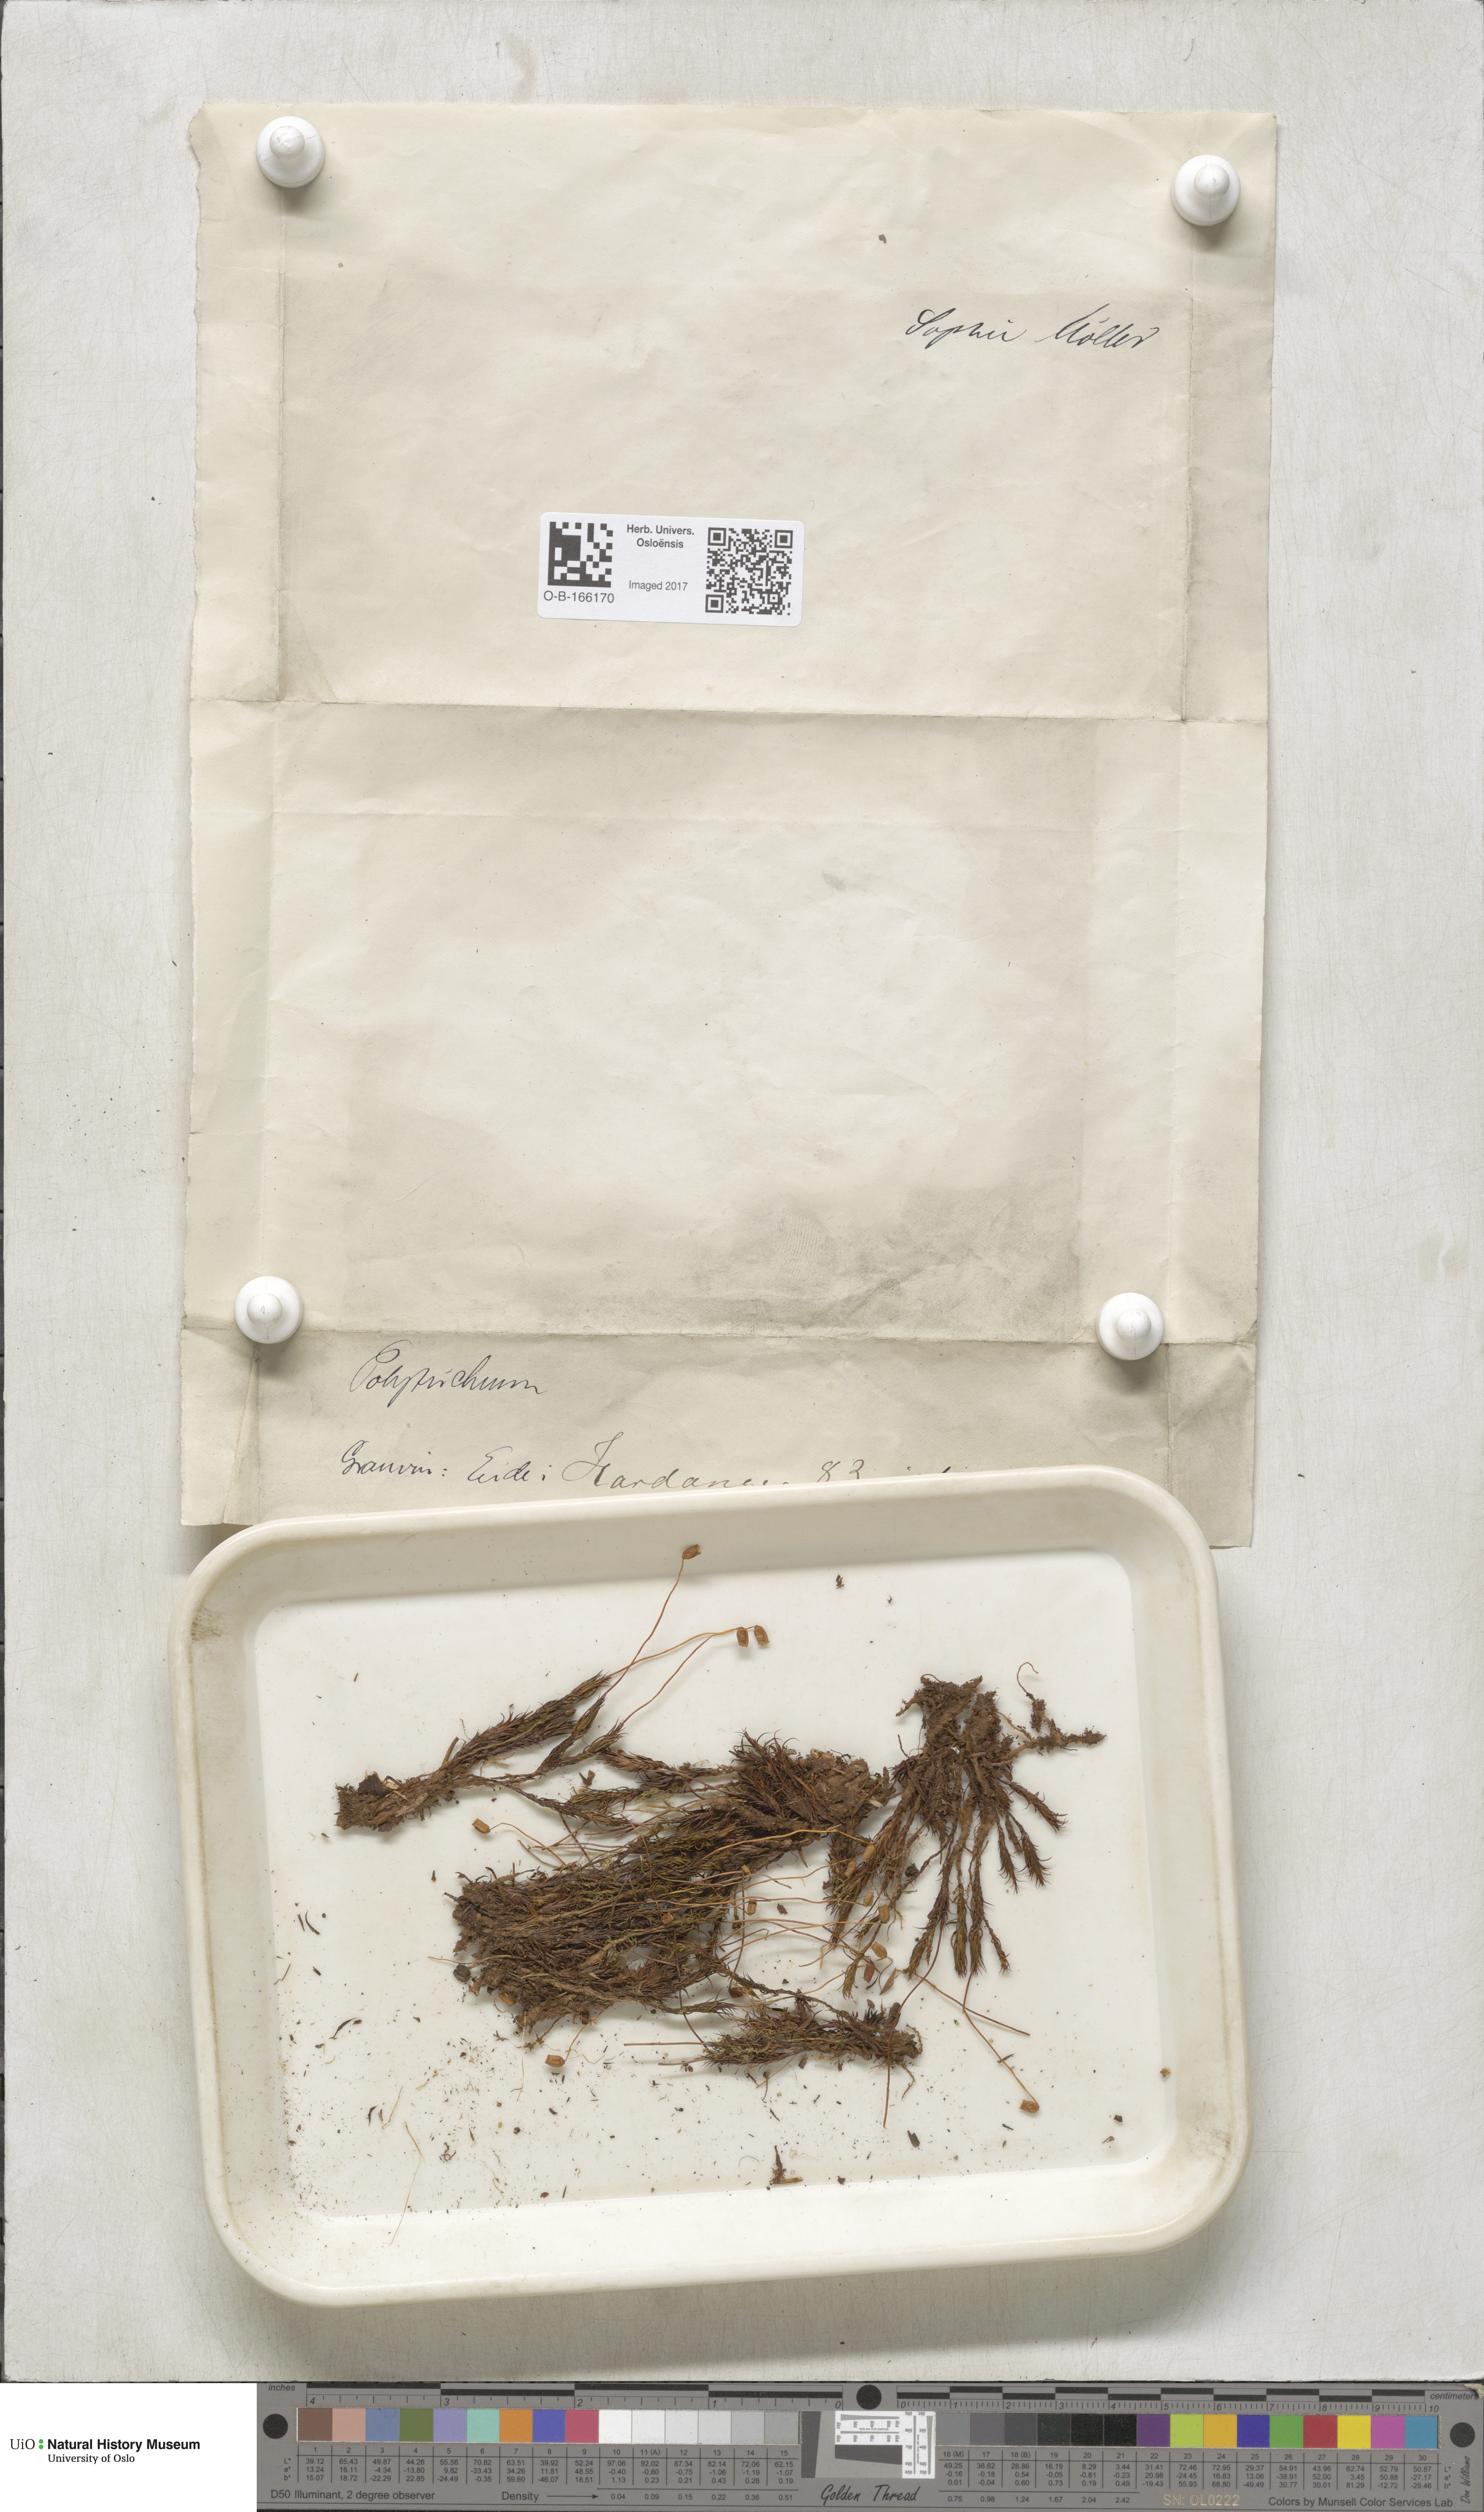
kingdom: Plantae
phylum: Bryophyta
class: Polytrichopsida
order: Polytrichales
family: Polytrichaceae
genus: Polytrichum
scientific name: Polytrichum
